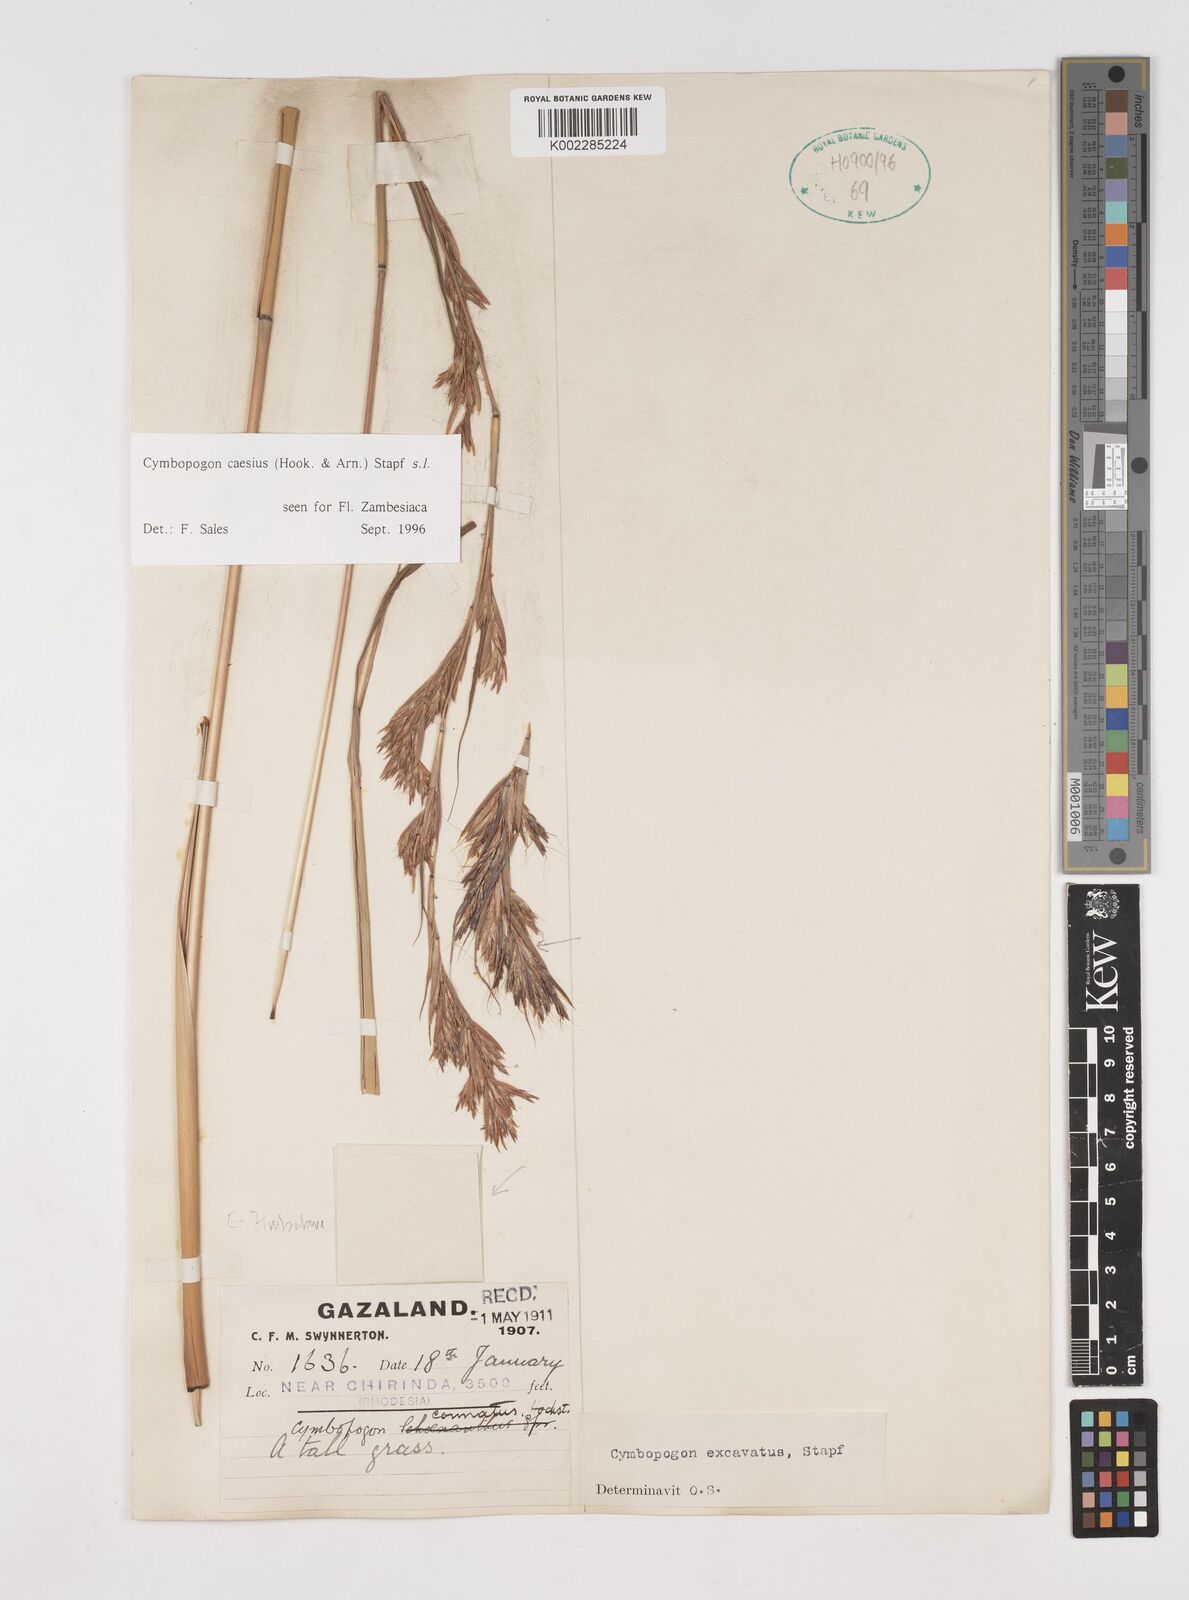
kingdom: Plantae
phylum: Tracheophyta
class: Liliopsida
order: Poales
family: Poaceae
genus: Cymbopogon
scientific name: Cymbopogon caesius
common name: Kachi grass
